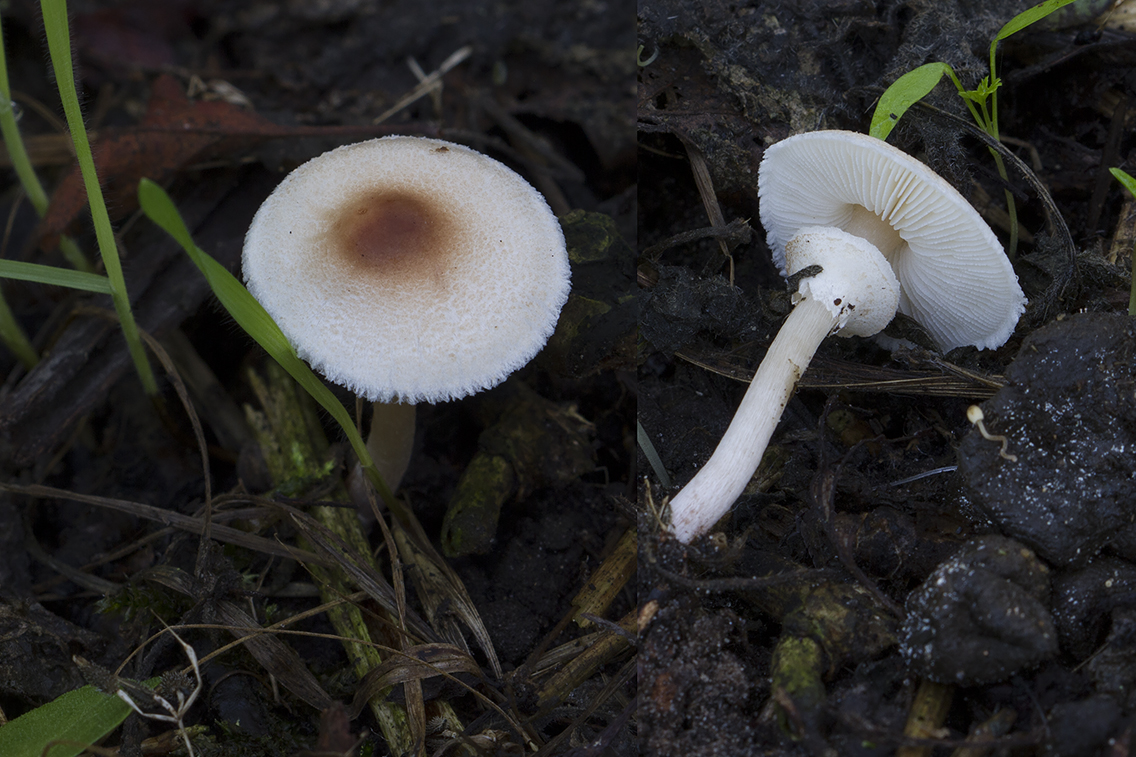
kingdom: Fungi
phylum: Basidiomycota
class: Agaricomycetes
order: Agaricales
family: Agaricaceae
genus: Lepiota
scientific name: Lepiota cristata
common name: stinkende parasolhat
